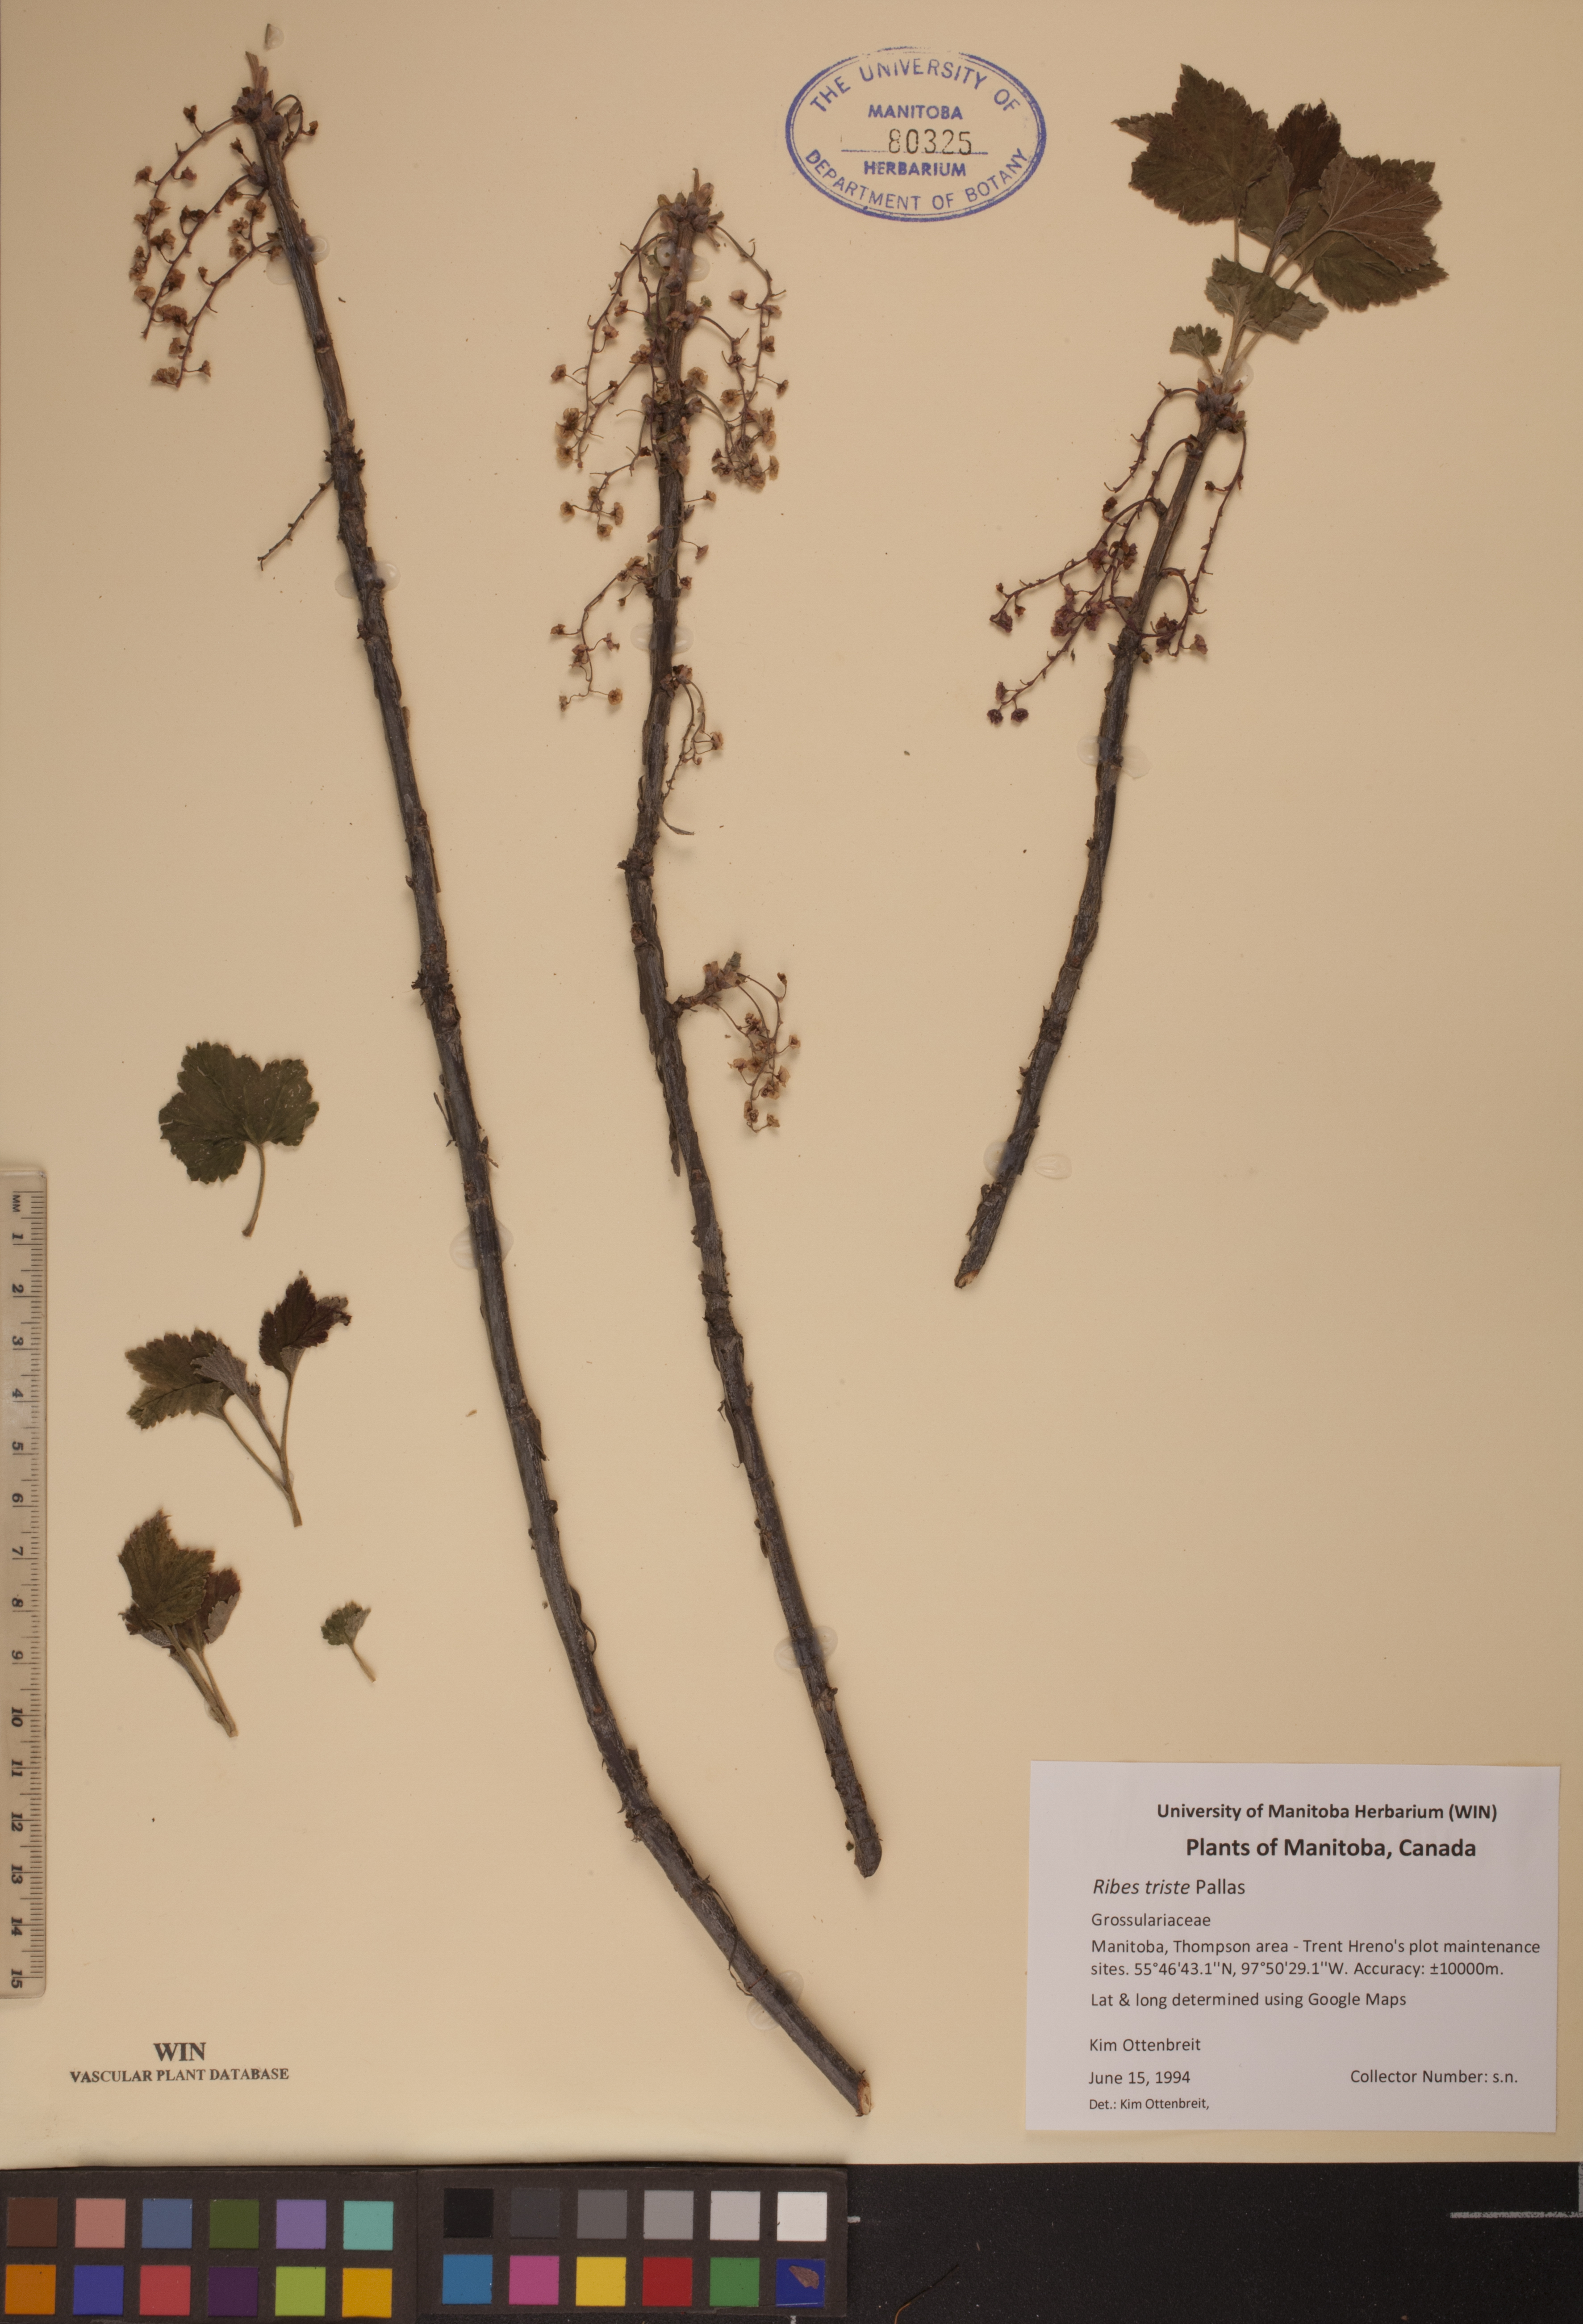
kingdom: Plantae
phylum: Tracheophyta
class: Magnoliopsida
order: Saxifragales
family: Grossulariaceae
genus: Ribes
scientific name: Ribes triste
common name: Swamp red currant
